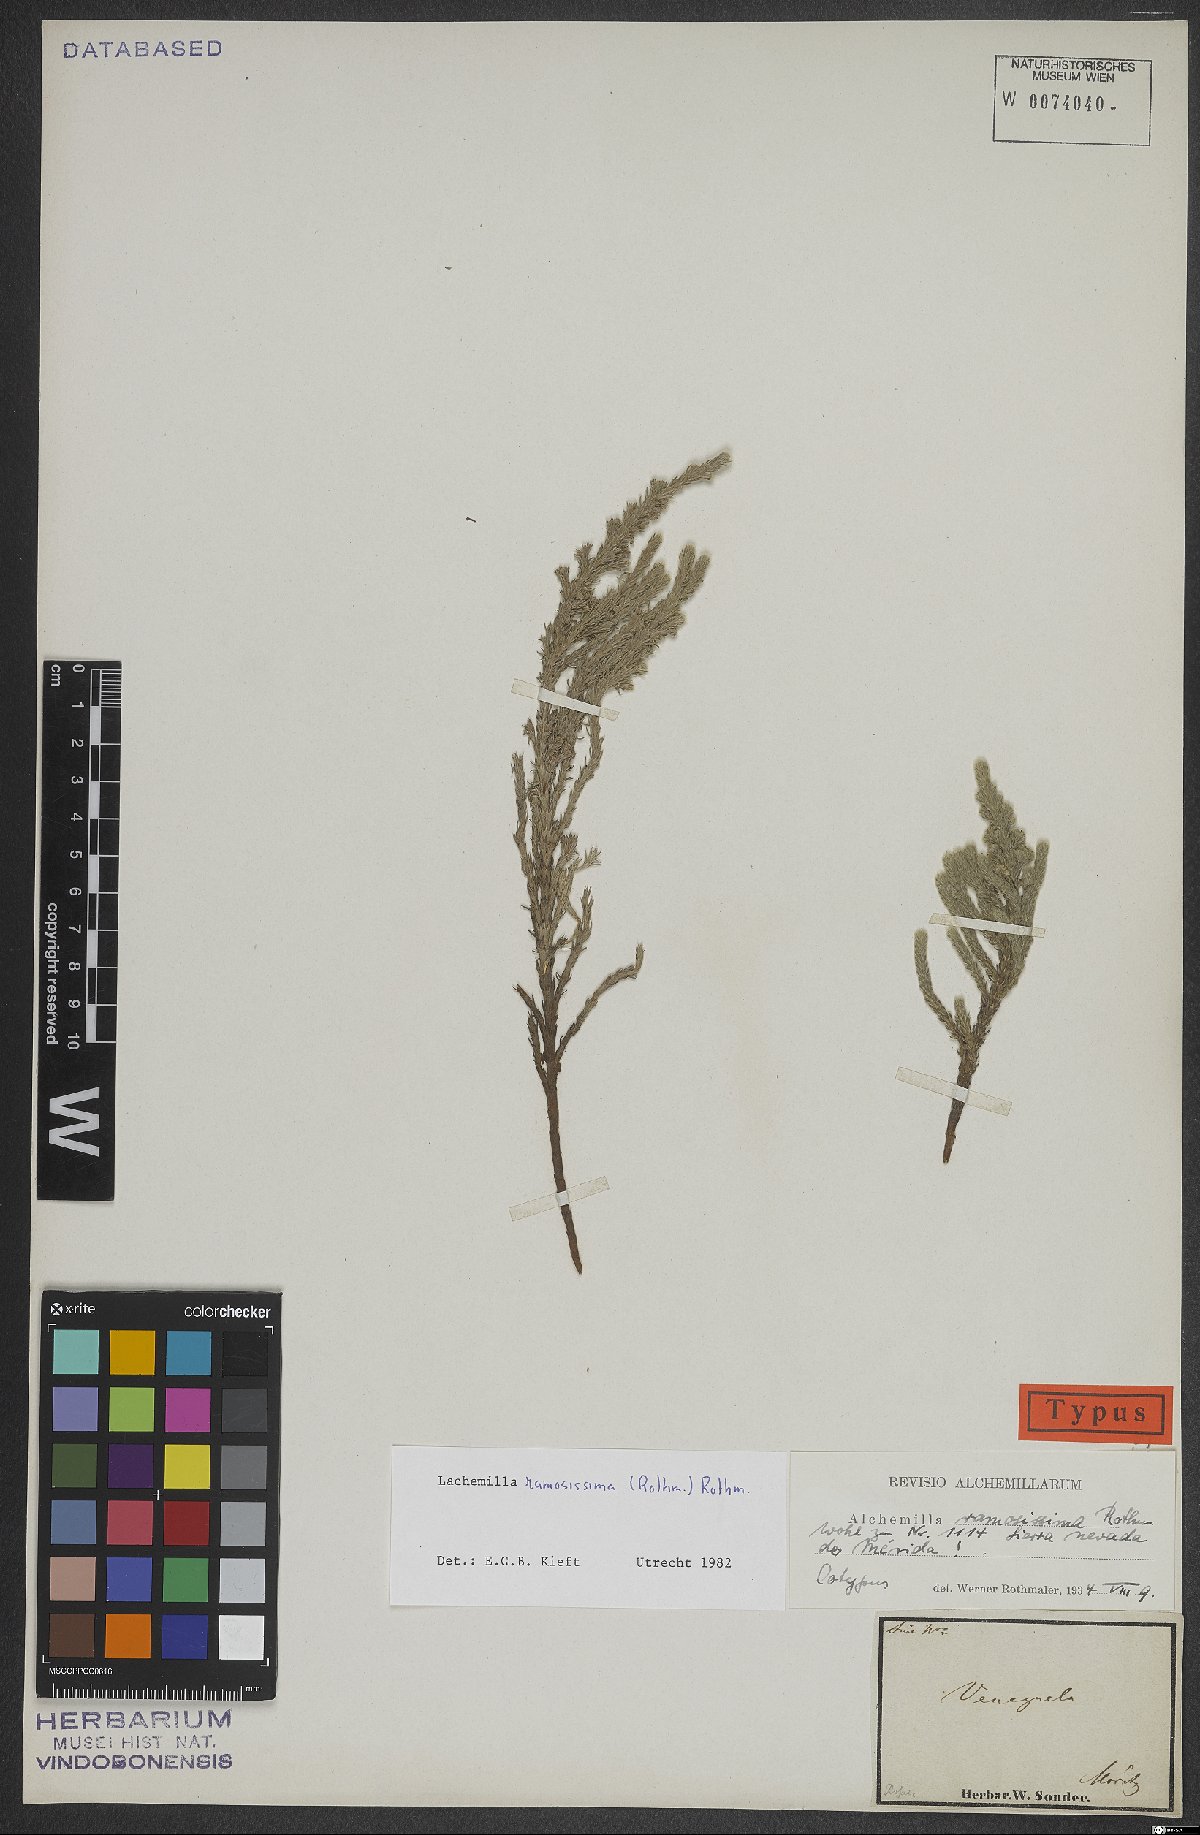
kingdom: Plantae
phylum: Tracheophyta
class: Magnoliopsida
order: Rosales
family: Rosaceae
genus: Lachemilla
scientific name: Lachemilla ramosissima
